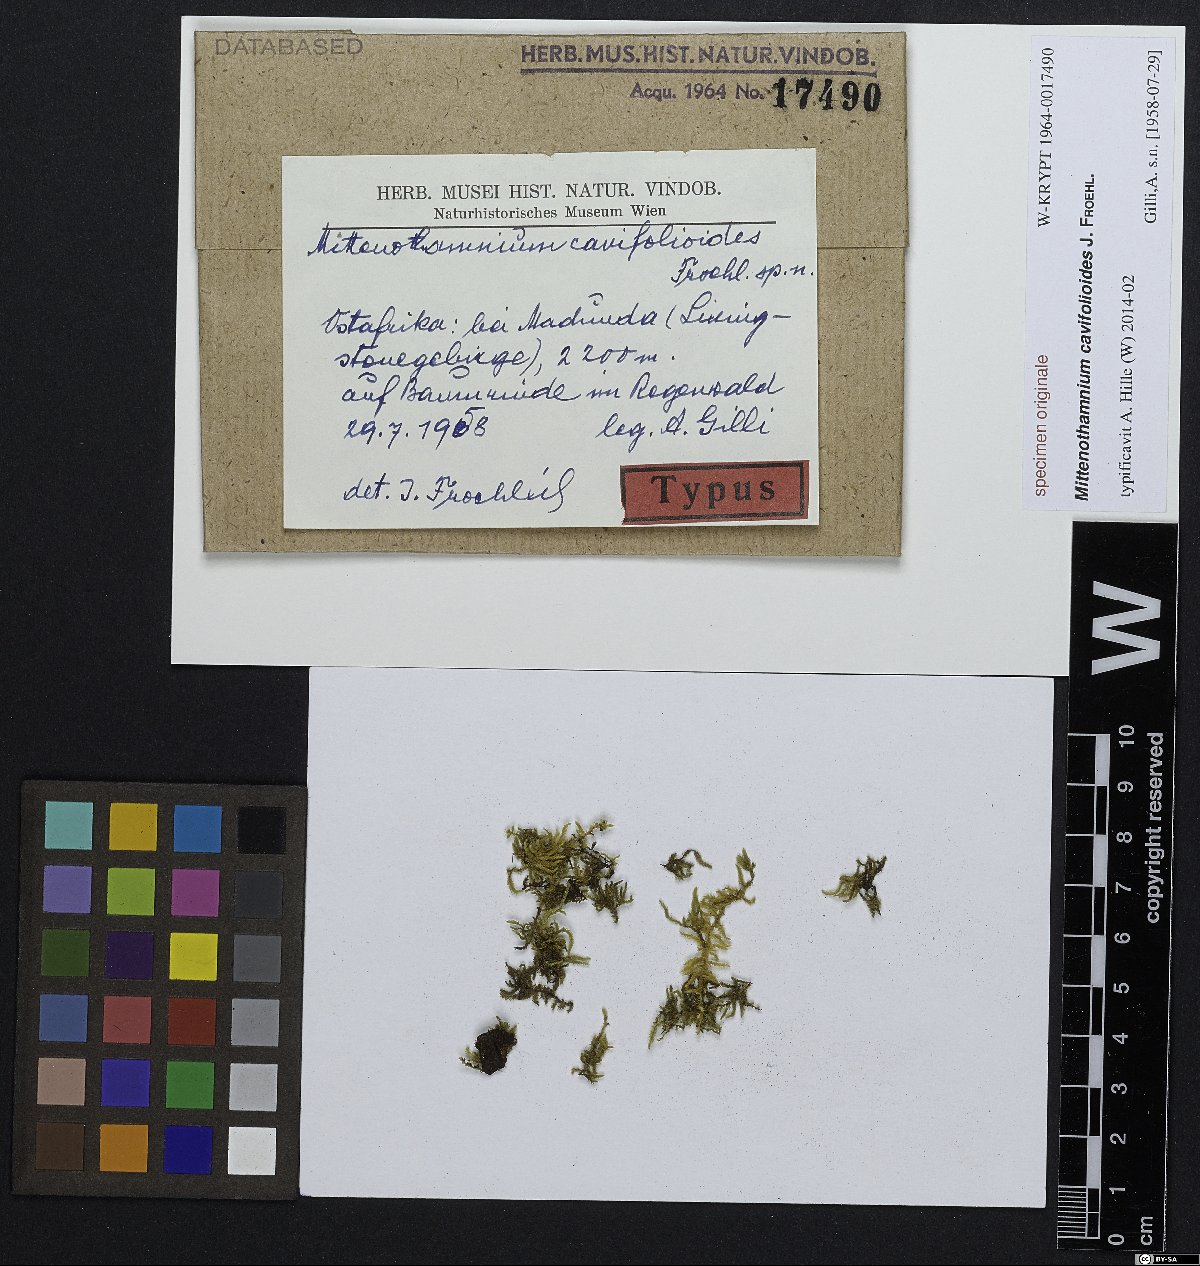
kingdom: Plantae
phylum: Bryophyta
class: Bryopsida
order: Hypnales
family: Hypnaceae
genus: Mittenothamnium
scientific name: Mittenothamnium
